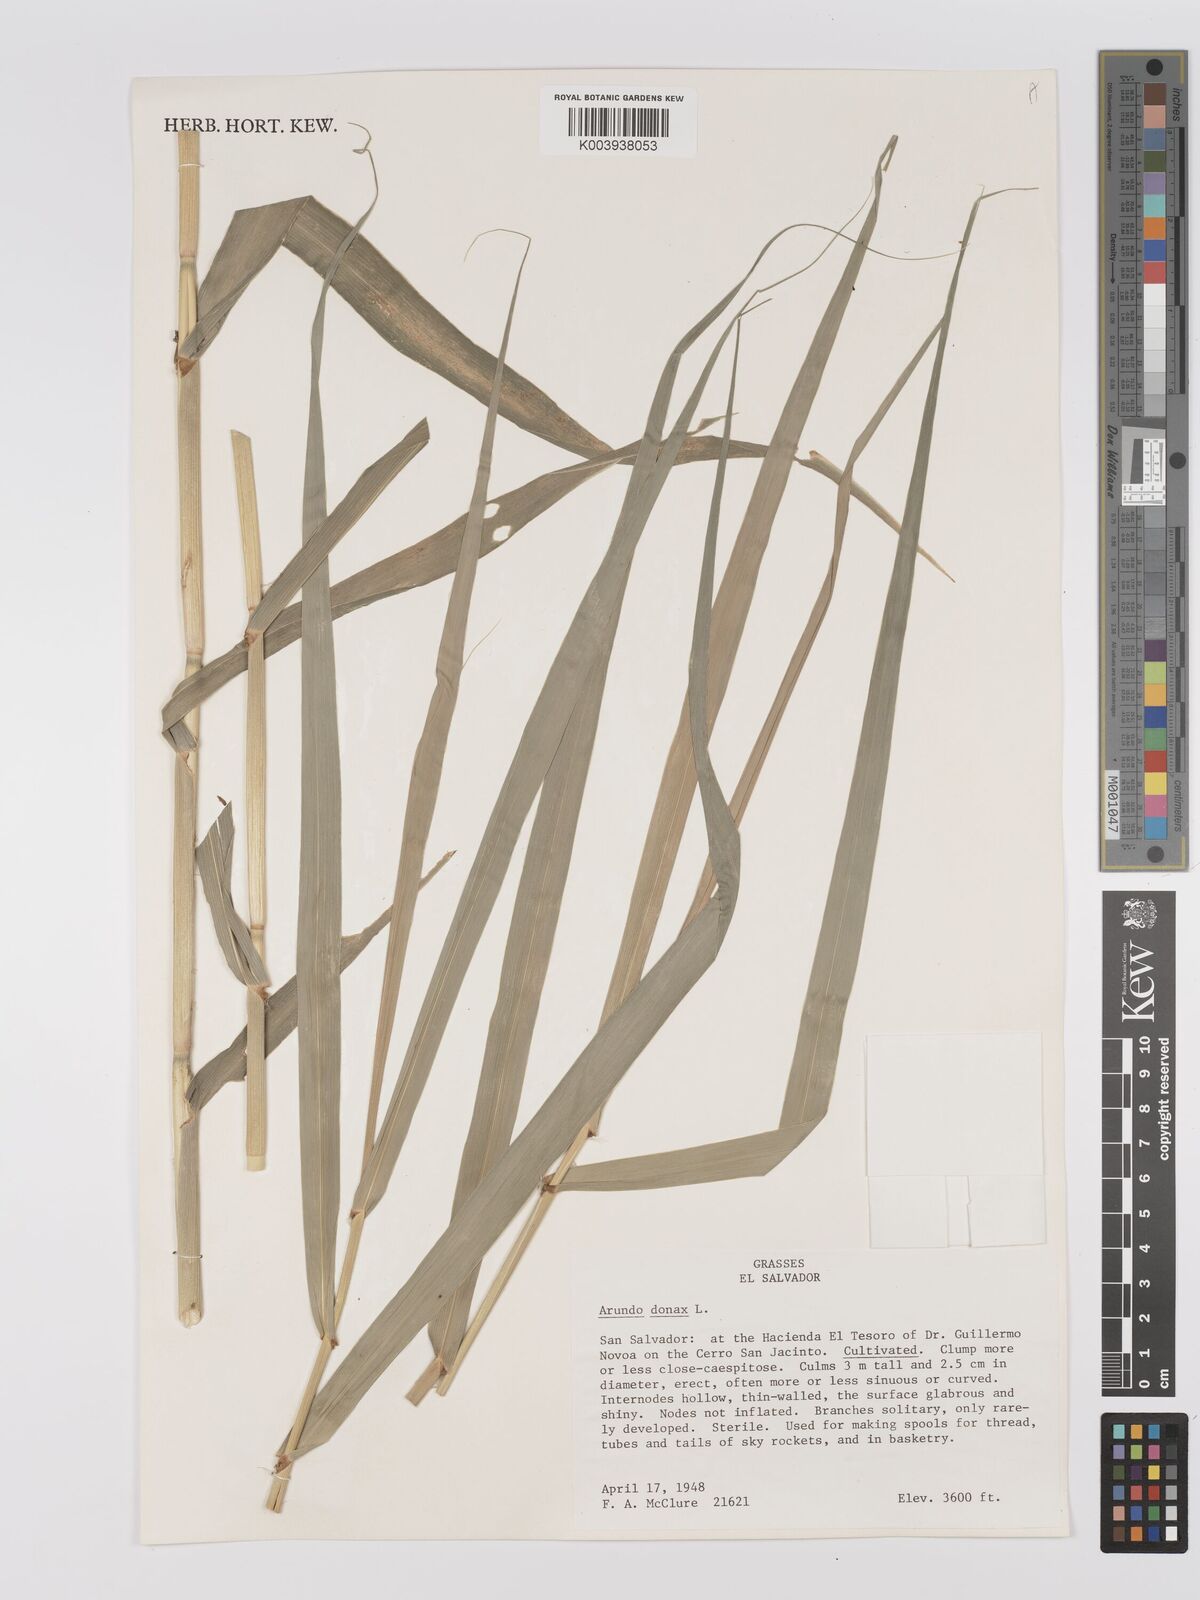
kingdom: Plantae
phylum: Tracheophyta
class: Liliopsida
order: Poales
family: Poaceae
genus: Arundo
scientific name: Arundo donax
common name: Giant reed
